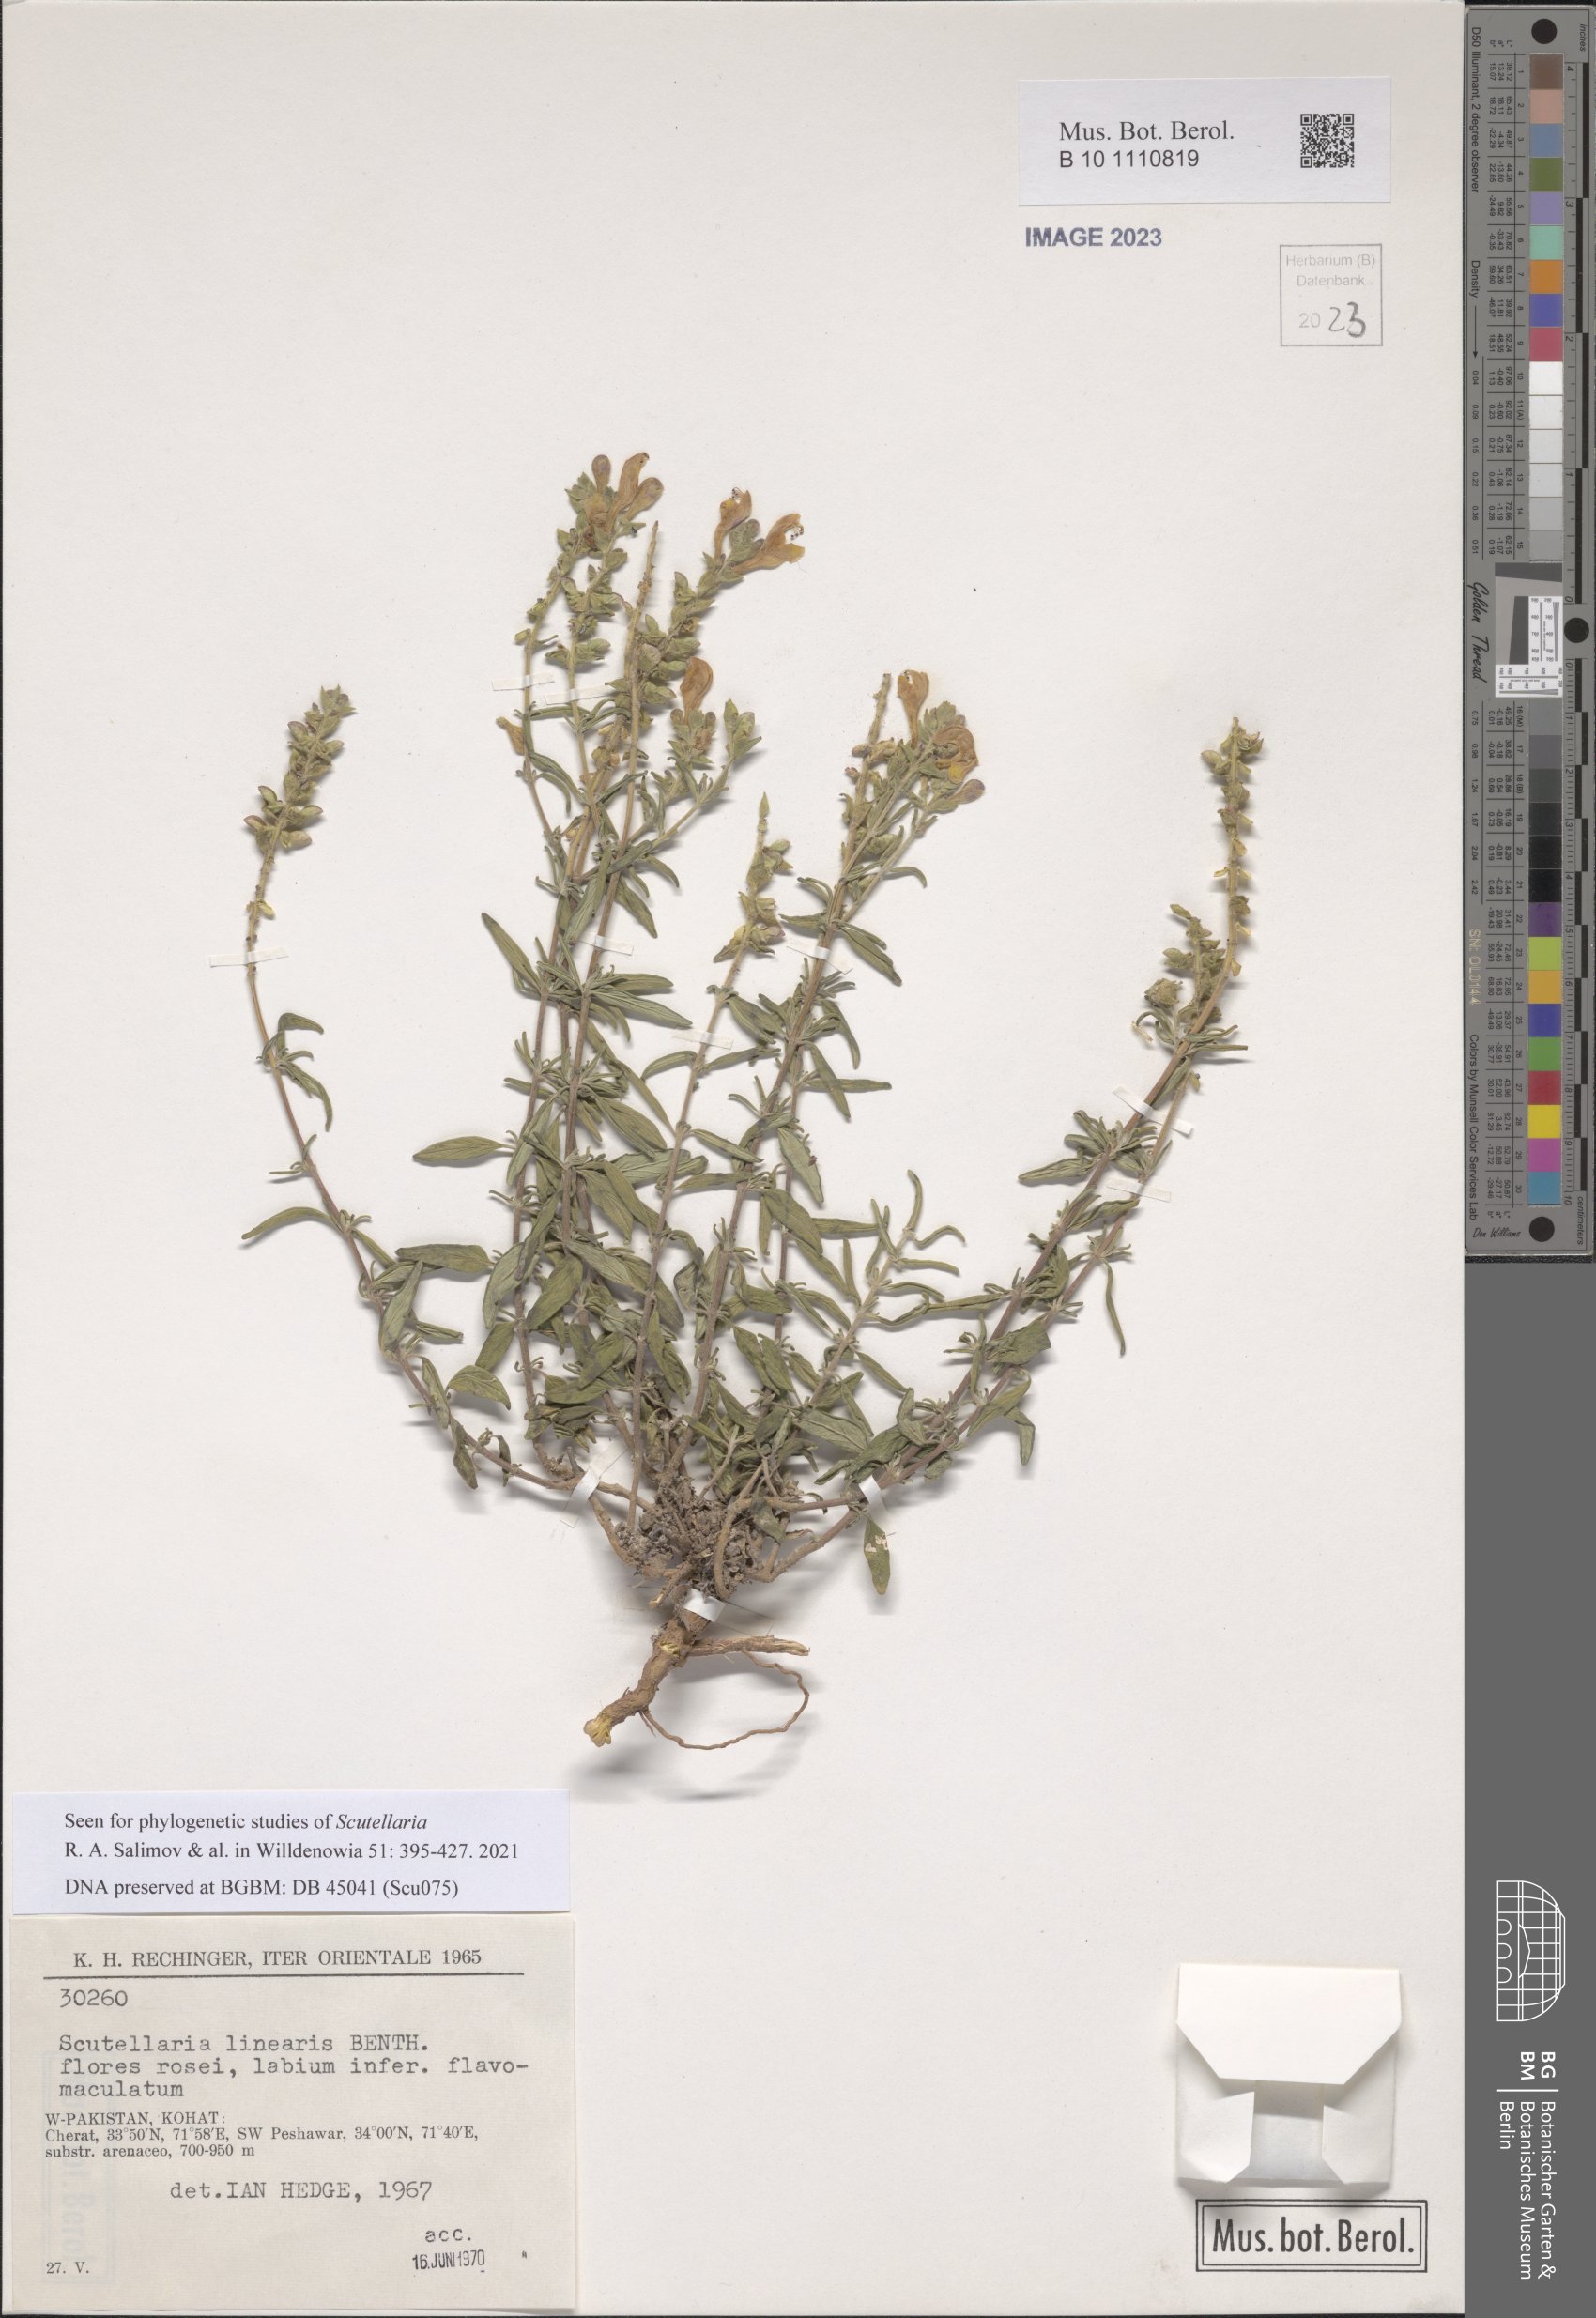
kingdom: Plantae
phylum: Tracheophyta
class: Magnoliopsida
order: Lamiales
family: Lamiaceae
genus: Scutellaria
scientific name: Scutellaria linearis
